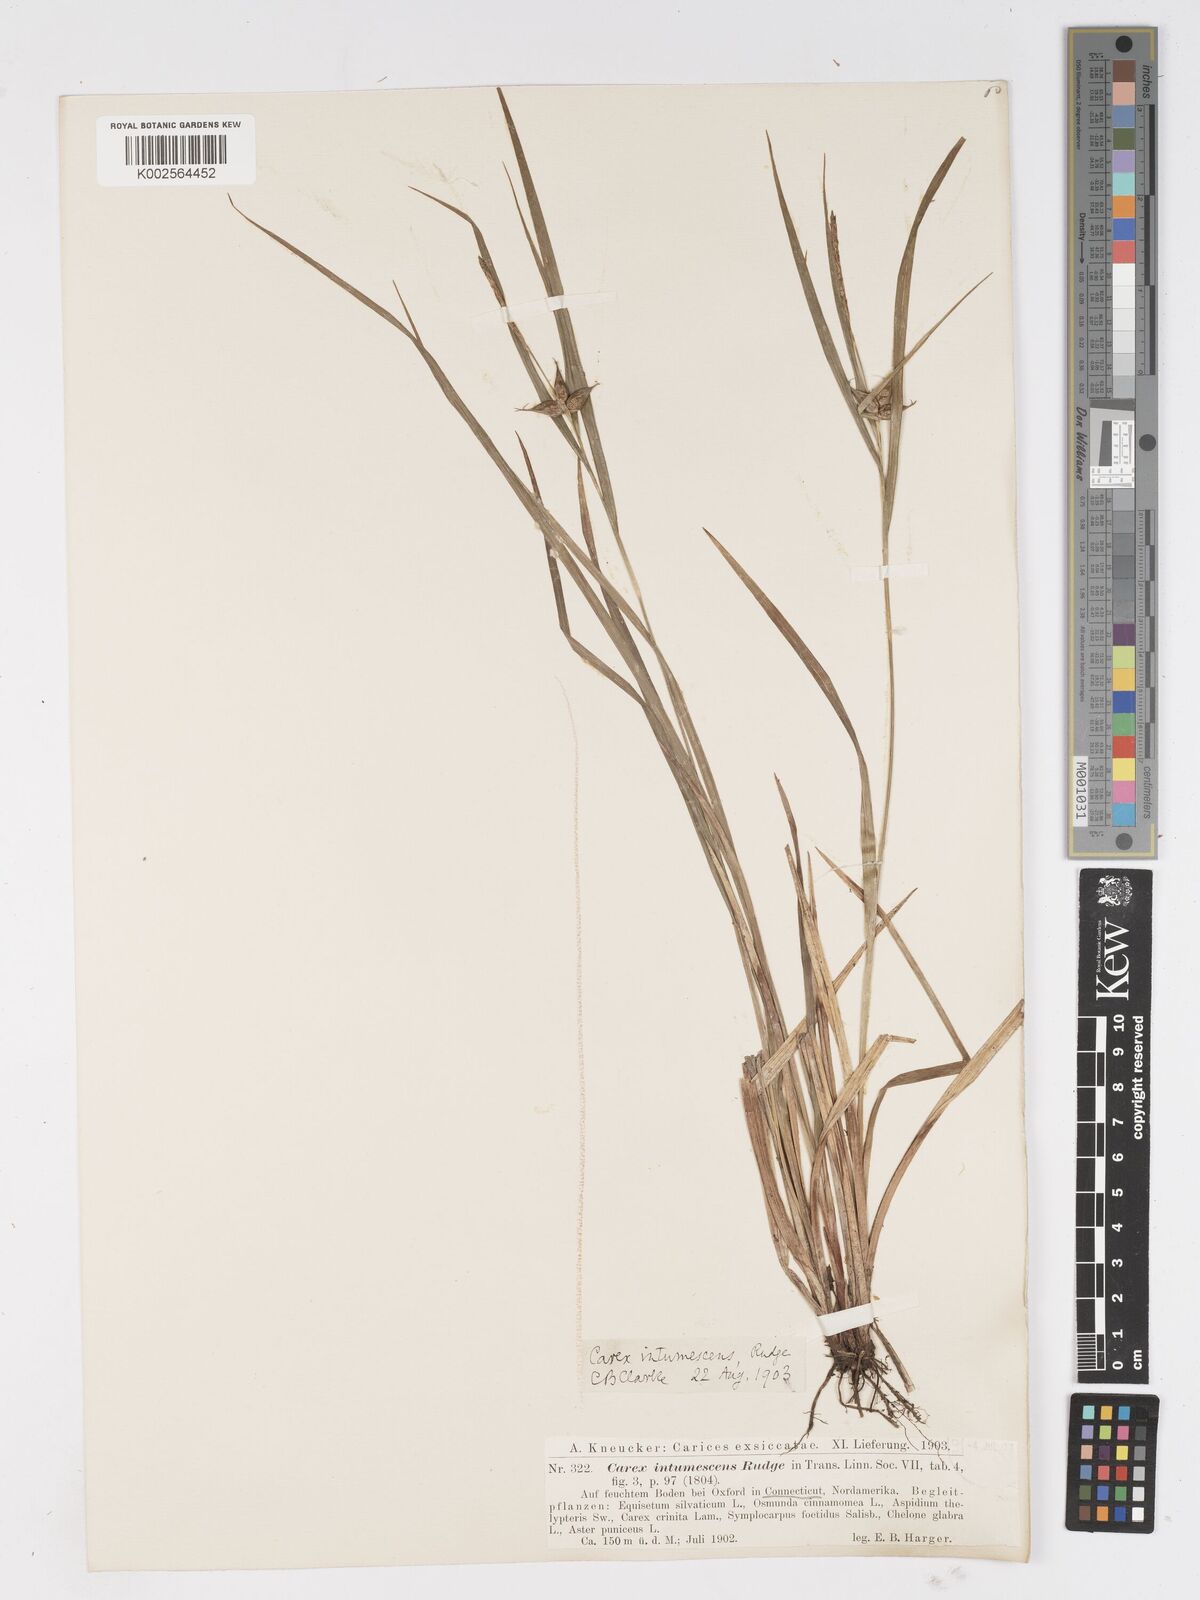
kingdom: Plantae
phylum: Tracheophyta
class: Liliopsida
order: Poales
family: Cyperaceae
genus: Carex
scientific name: Carex intumescens
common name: Greater bladder sedge
